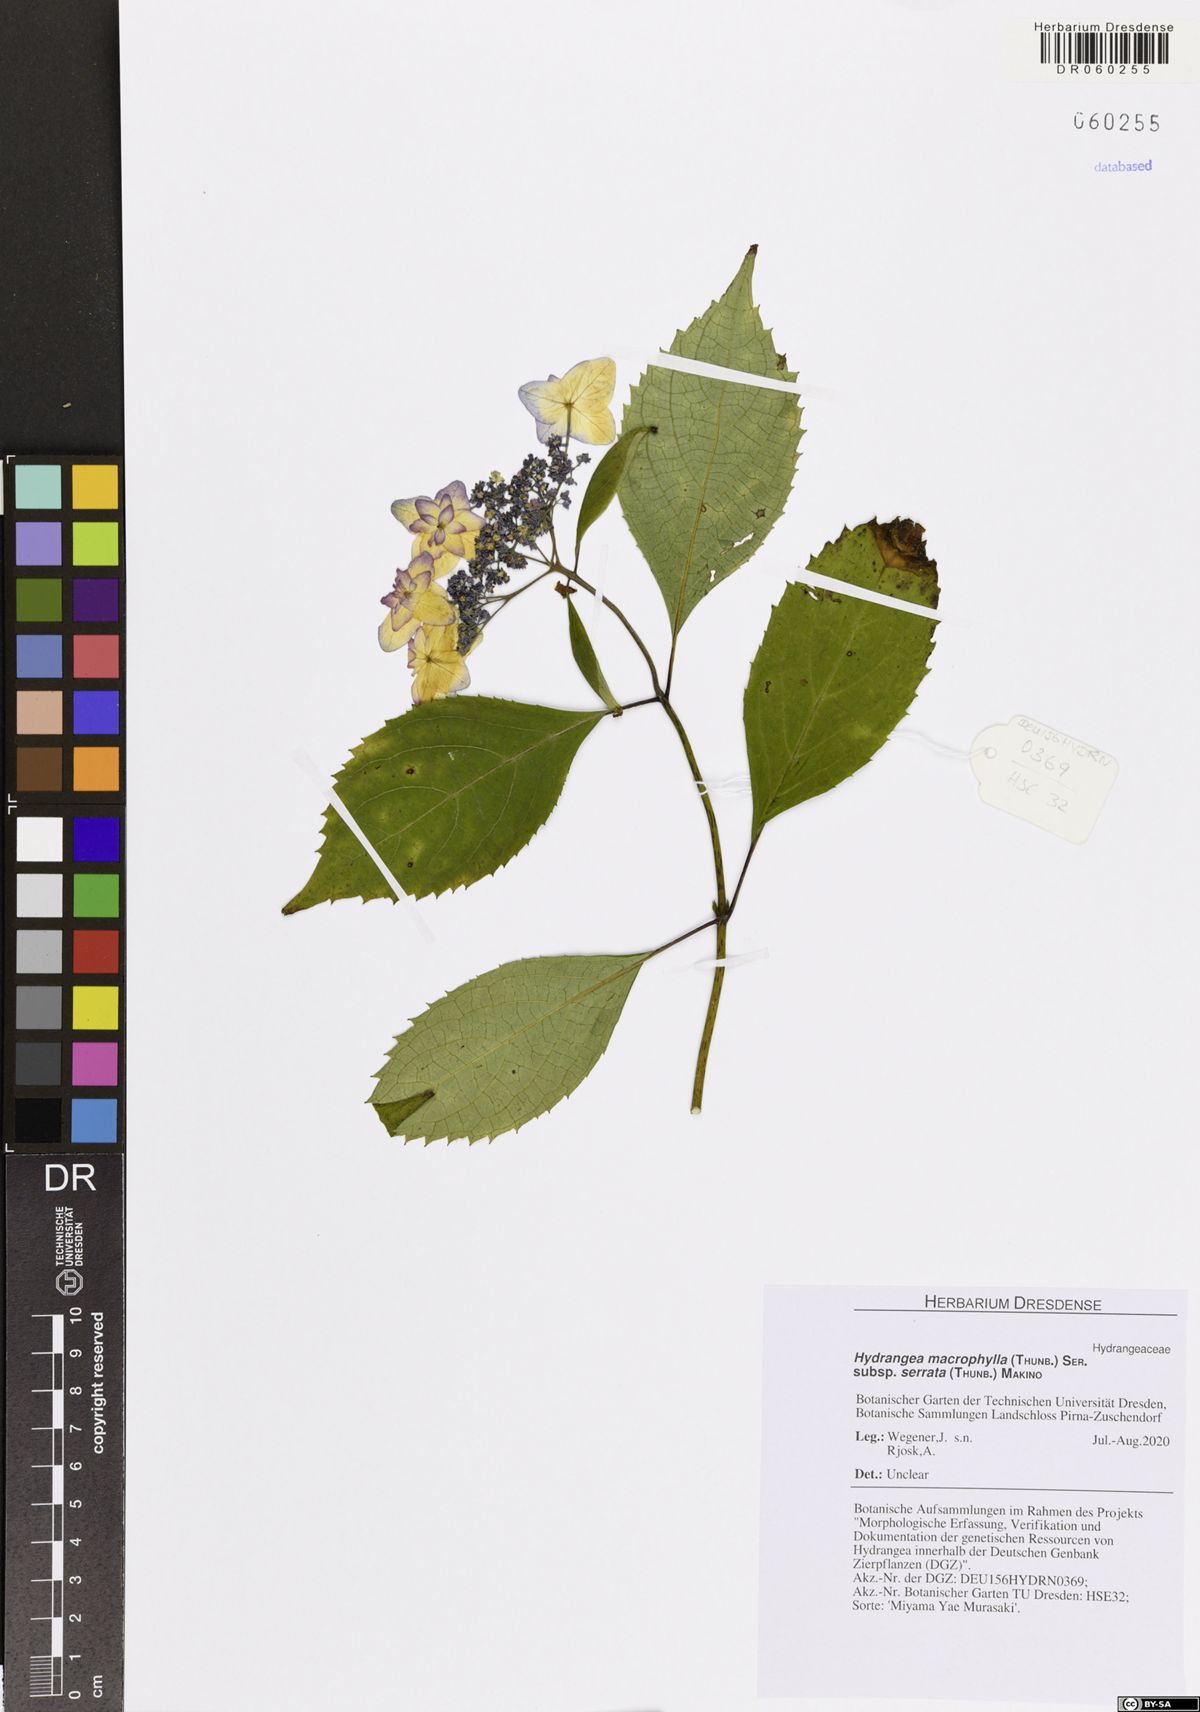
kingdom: Plantae
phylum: Tracheophyta
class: Magnoliopsida
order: Cornales
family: Hydrangeaceae
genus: Hydrangea
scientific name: Hydrangea serrata
